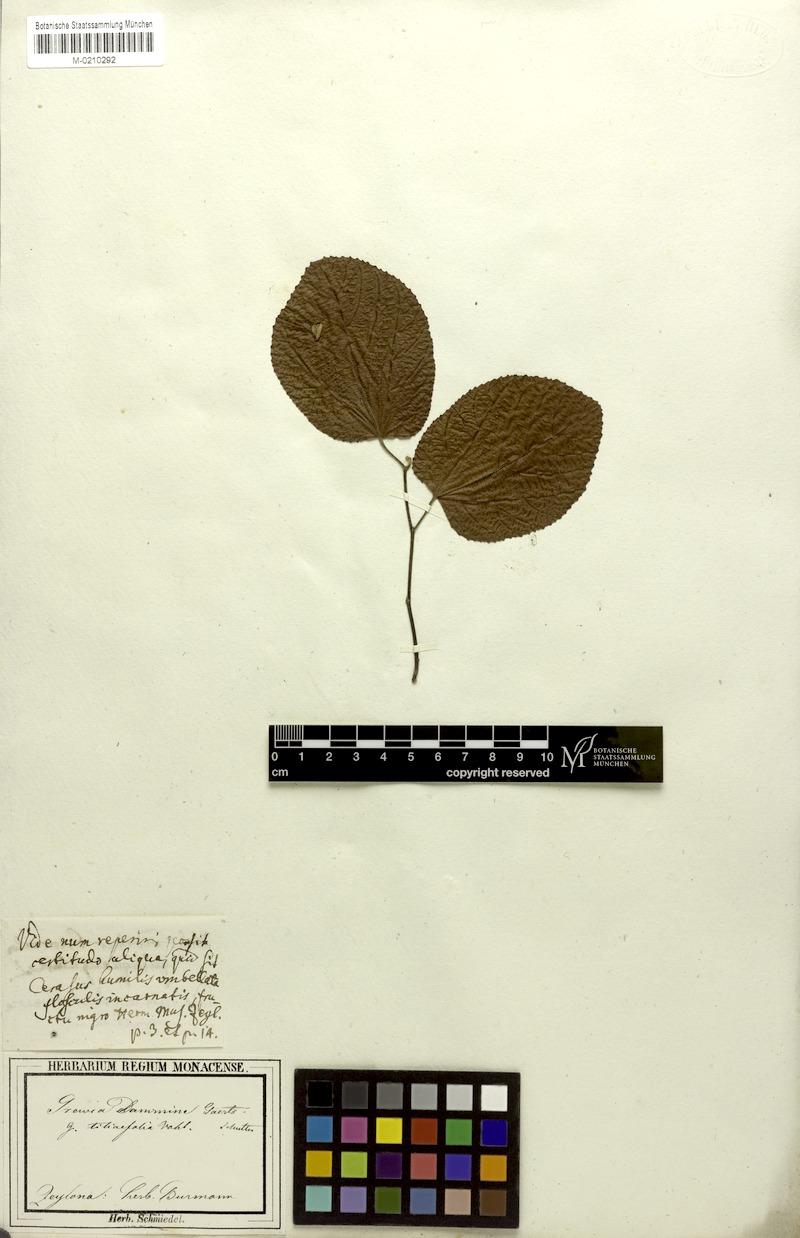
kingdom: Plantae
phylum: Tracheophyta
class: Magnoliopsida
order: Malvales
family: Malvaceae
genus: Grewia
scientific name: Grewia tiliifolia
